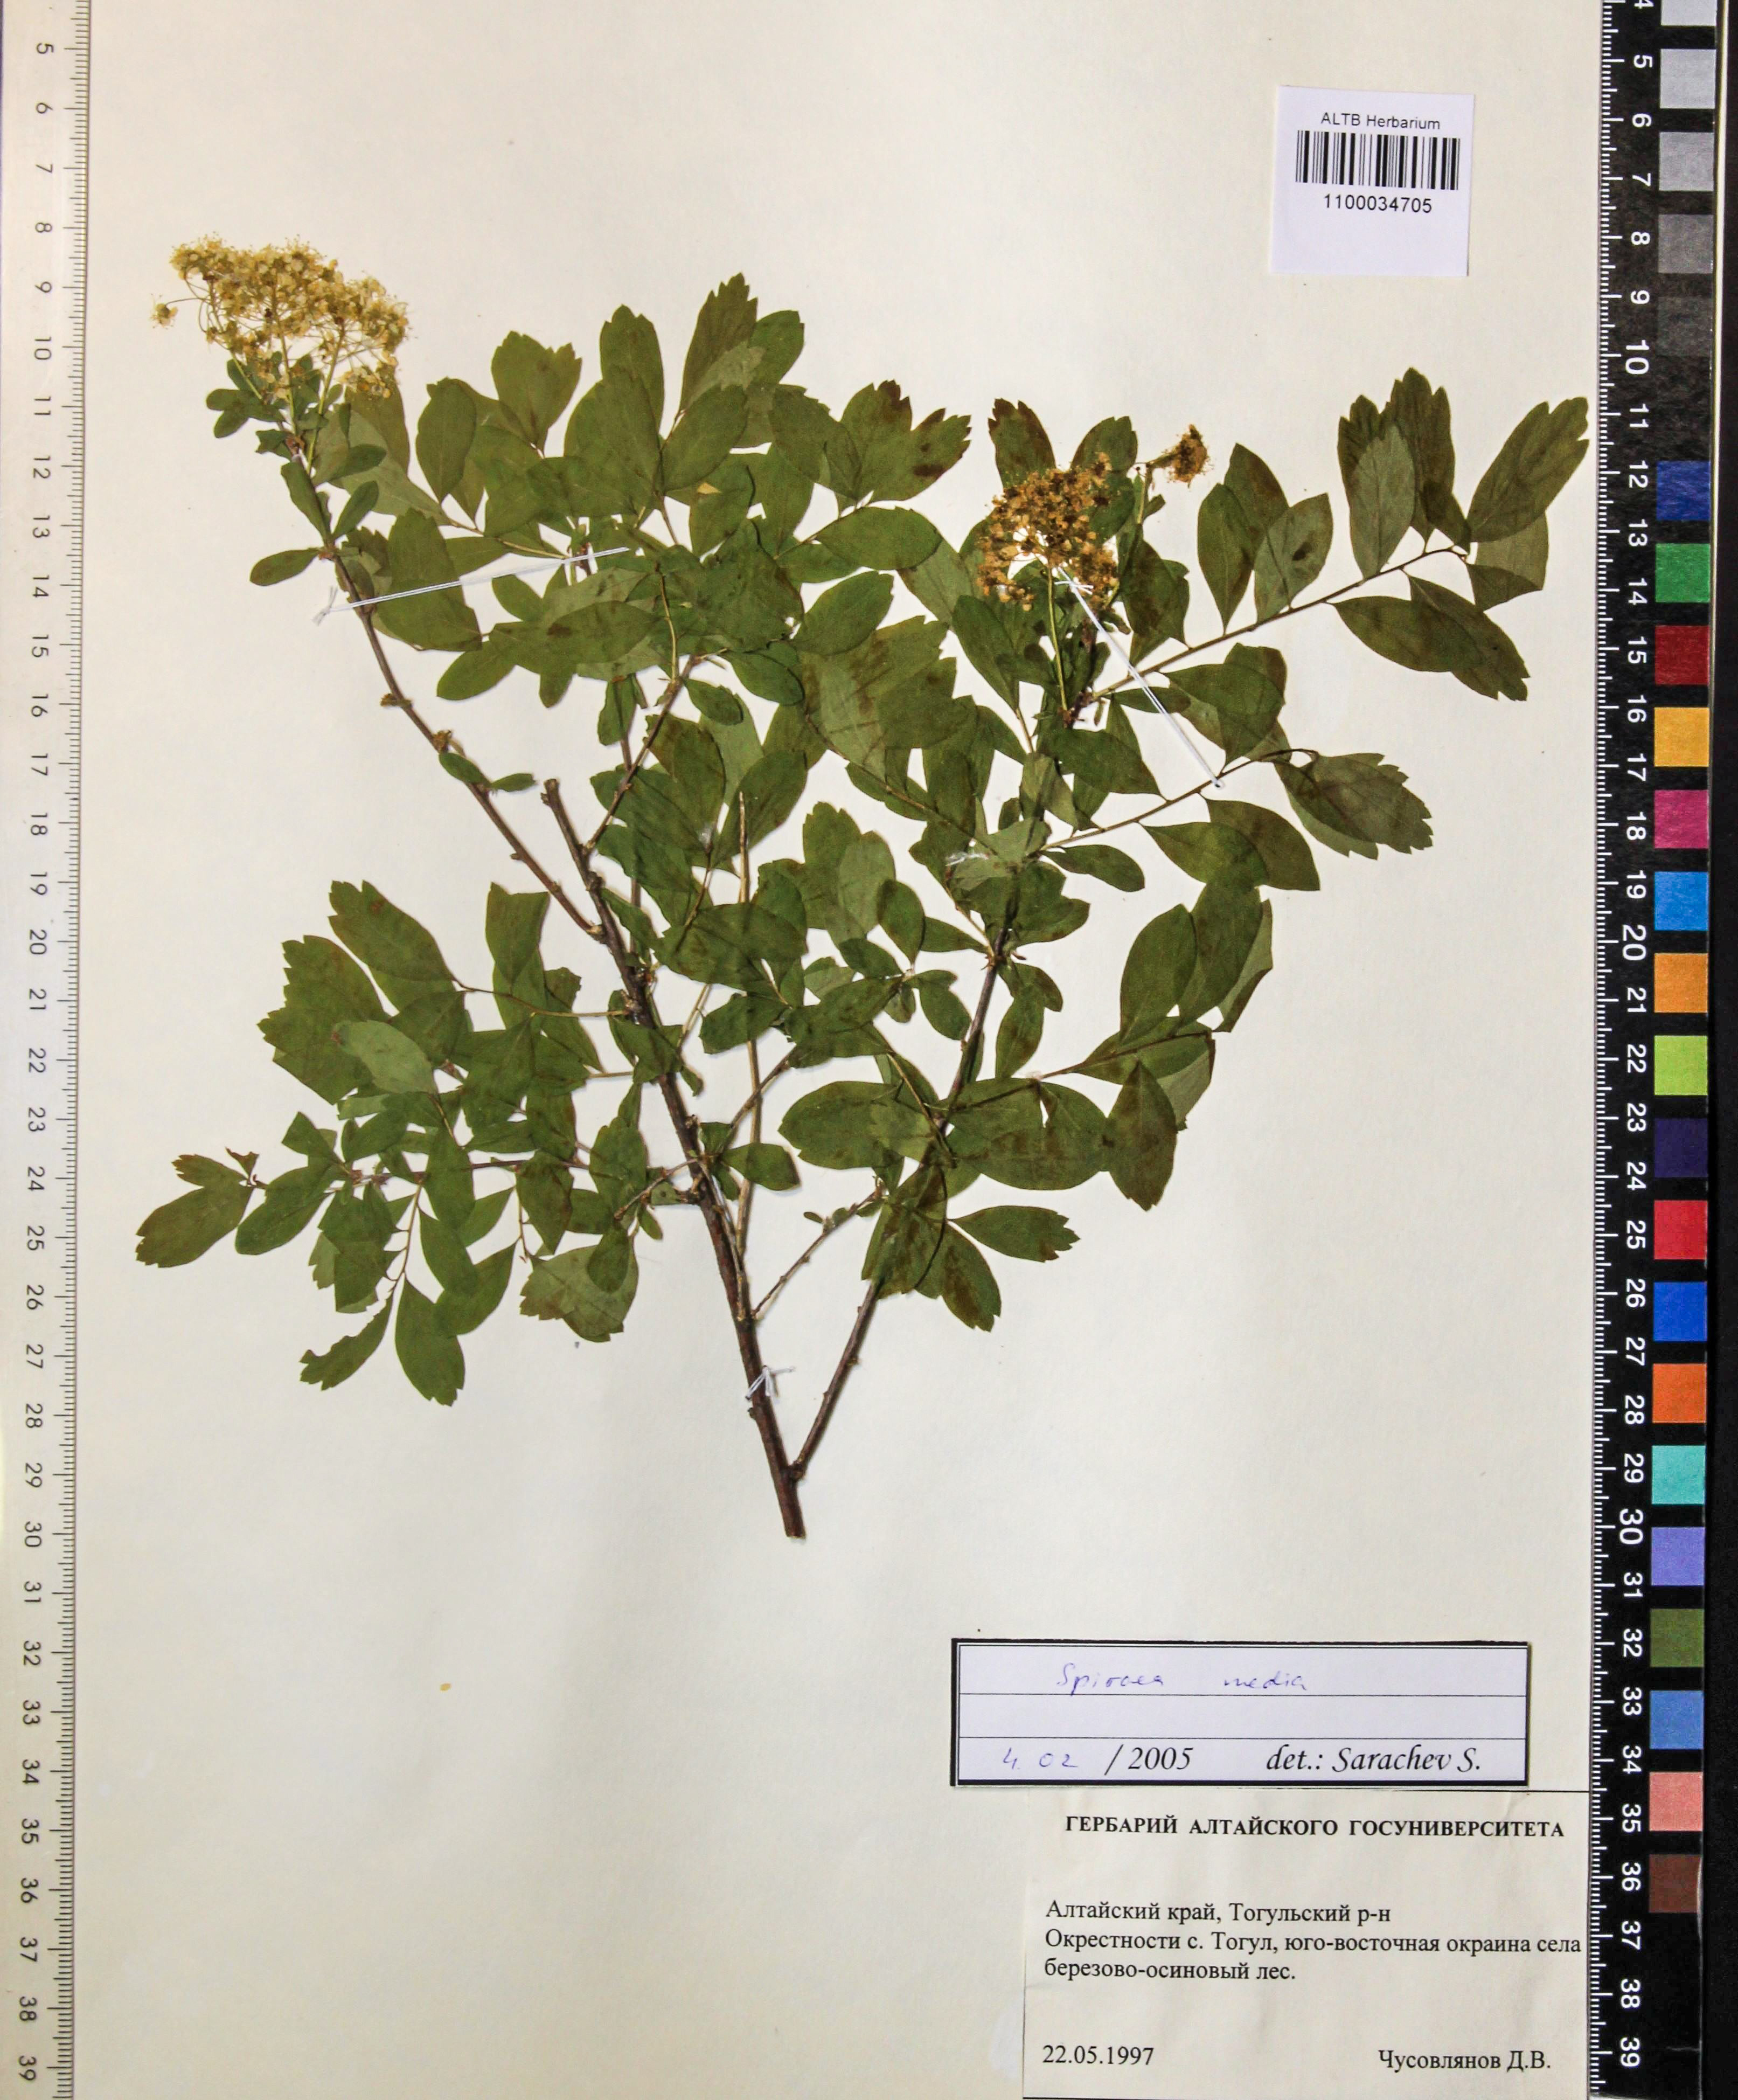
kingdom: Plantae
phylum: Tracheophyta
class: Magnoliopsida
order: Rosales
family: Rosaceae
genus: Spiraea
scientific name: Spiraea media
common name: Russian spiraea
